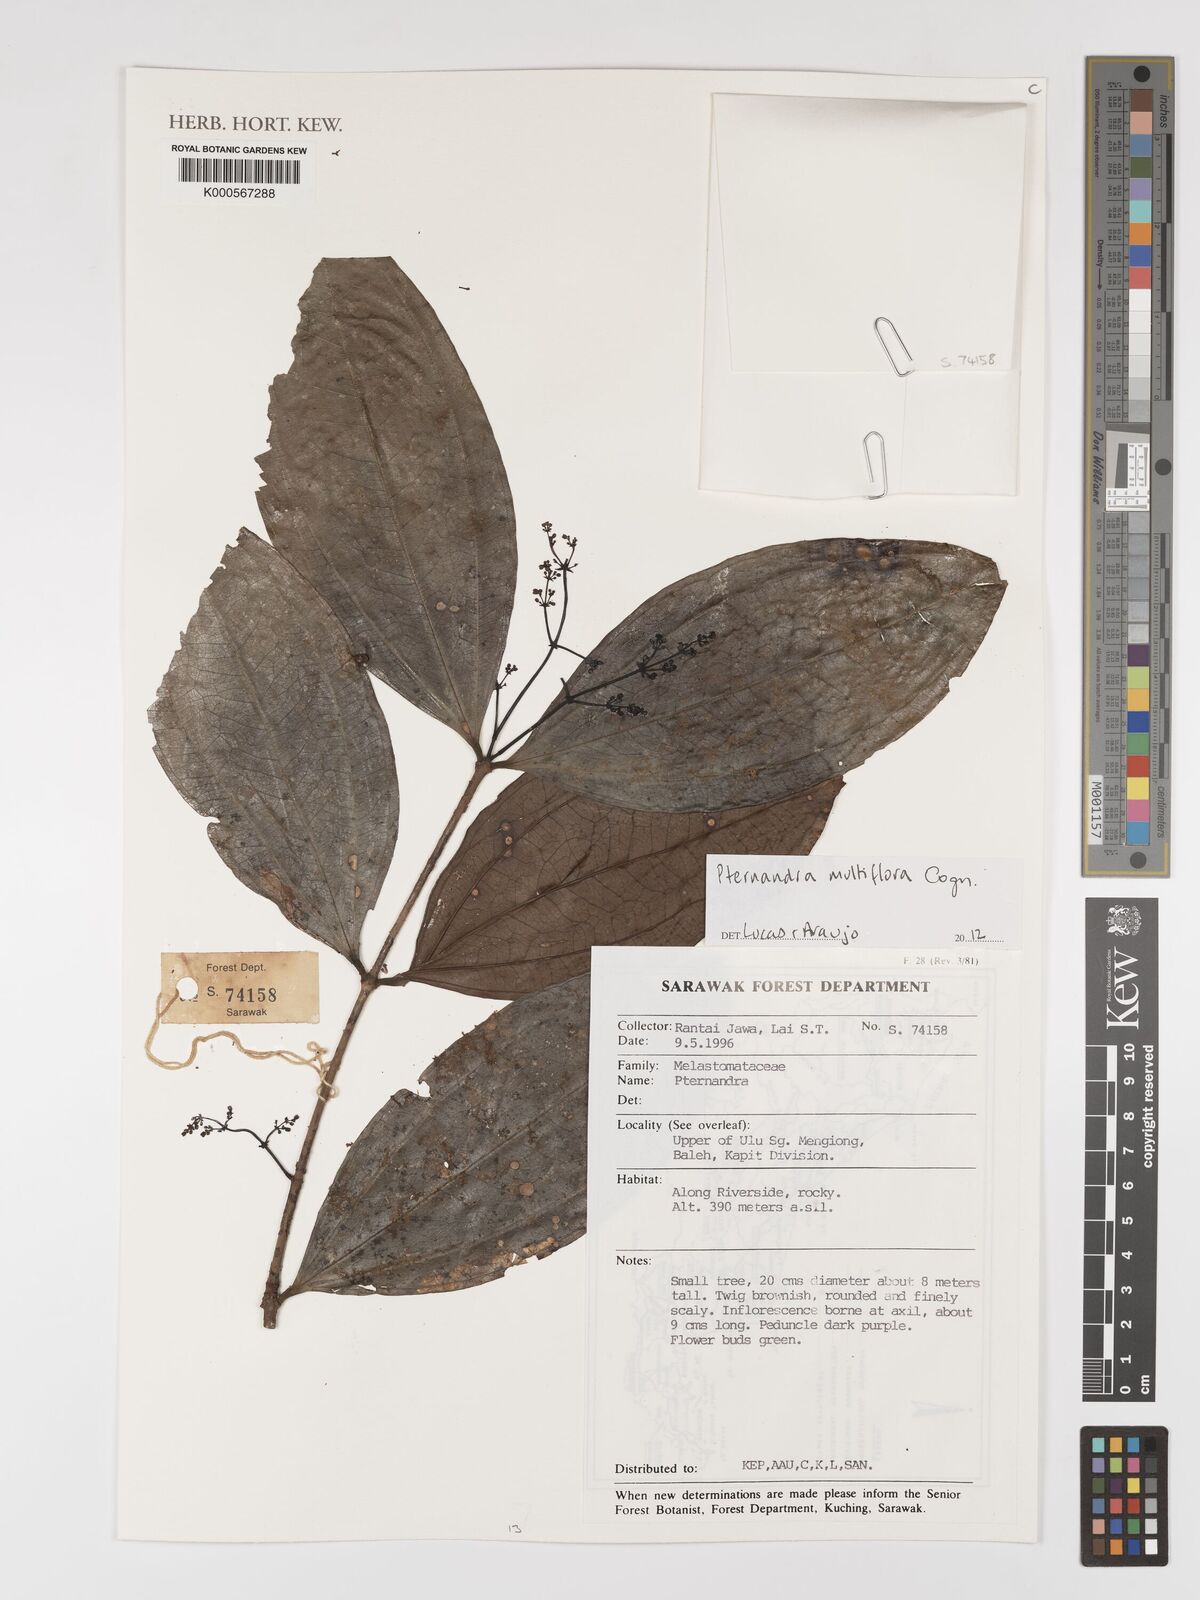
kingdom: Plantae
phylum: Tracheophyta
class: Magnoliopsida
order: Myrtales
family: Melastomataceae
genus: Pternandra
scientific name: Pternandra multiflora
